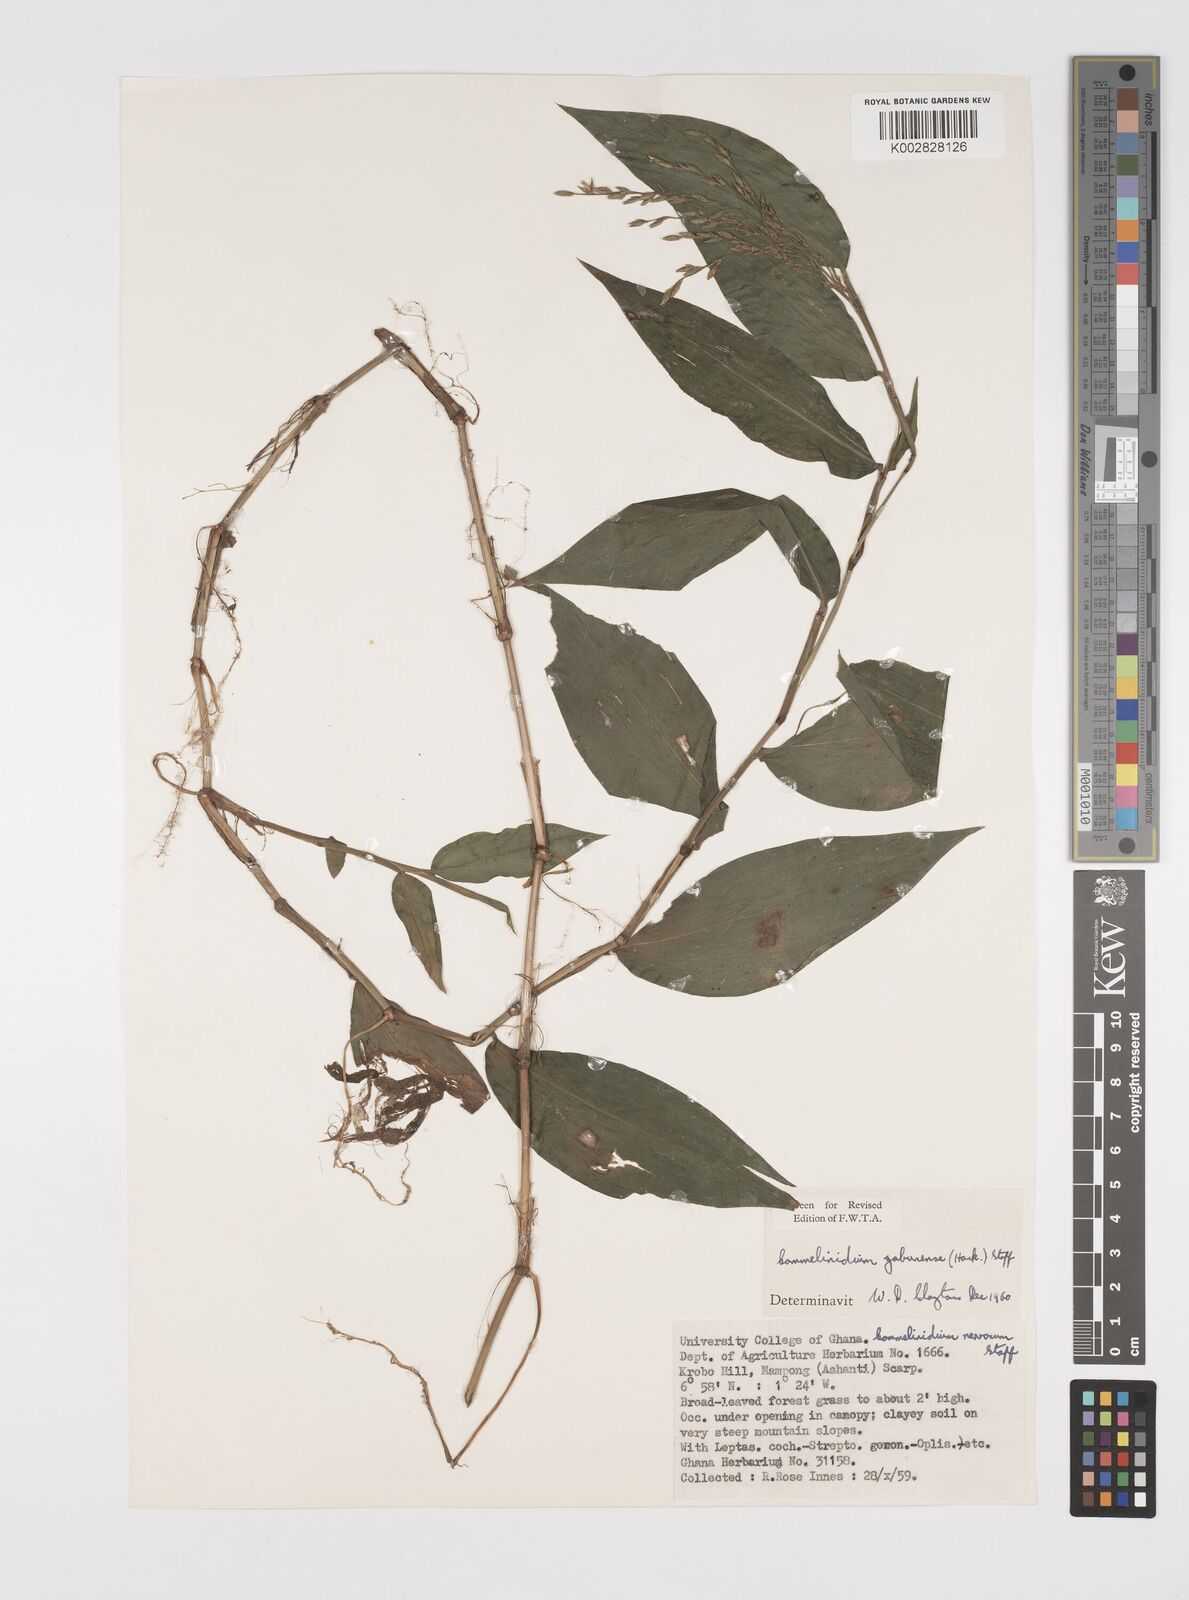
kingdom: Plantae
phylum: Tracheophyta
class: Liliopsida
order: Poales
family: Poaceae
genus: Acroceras
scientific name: Acroceras gabunense
